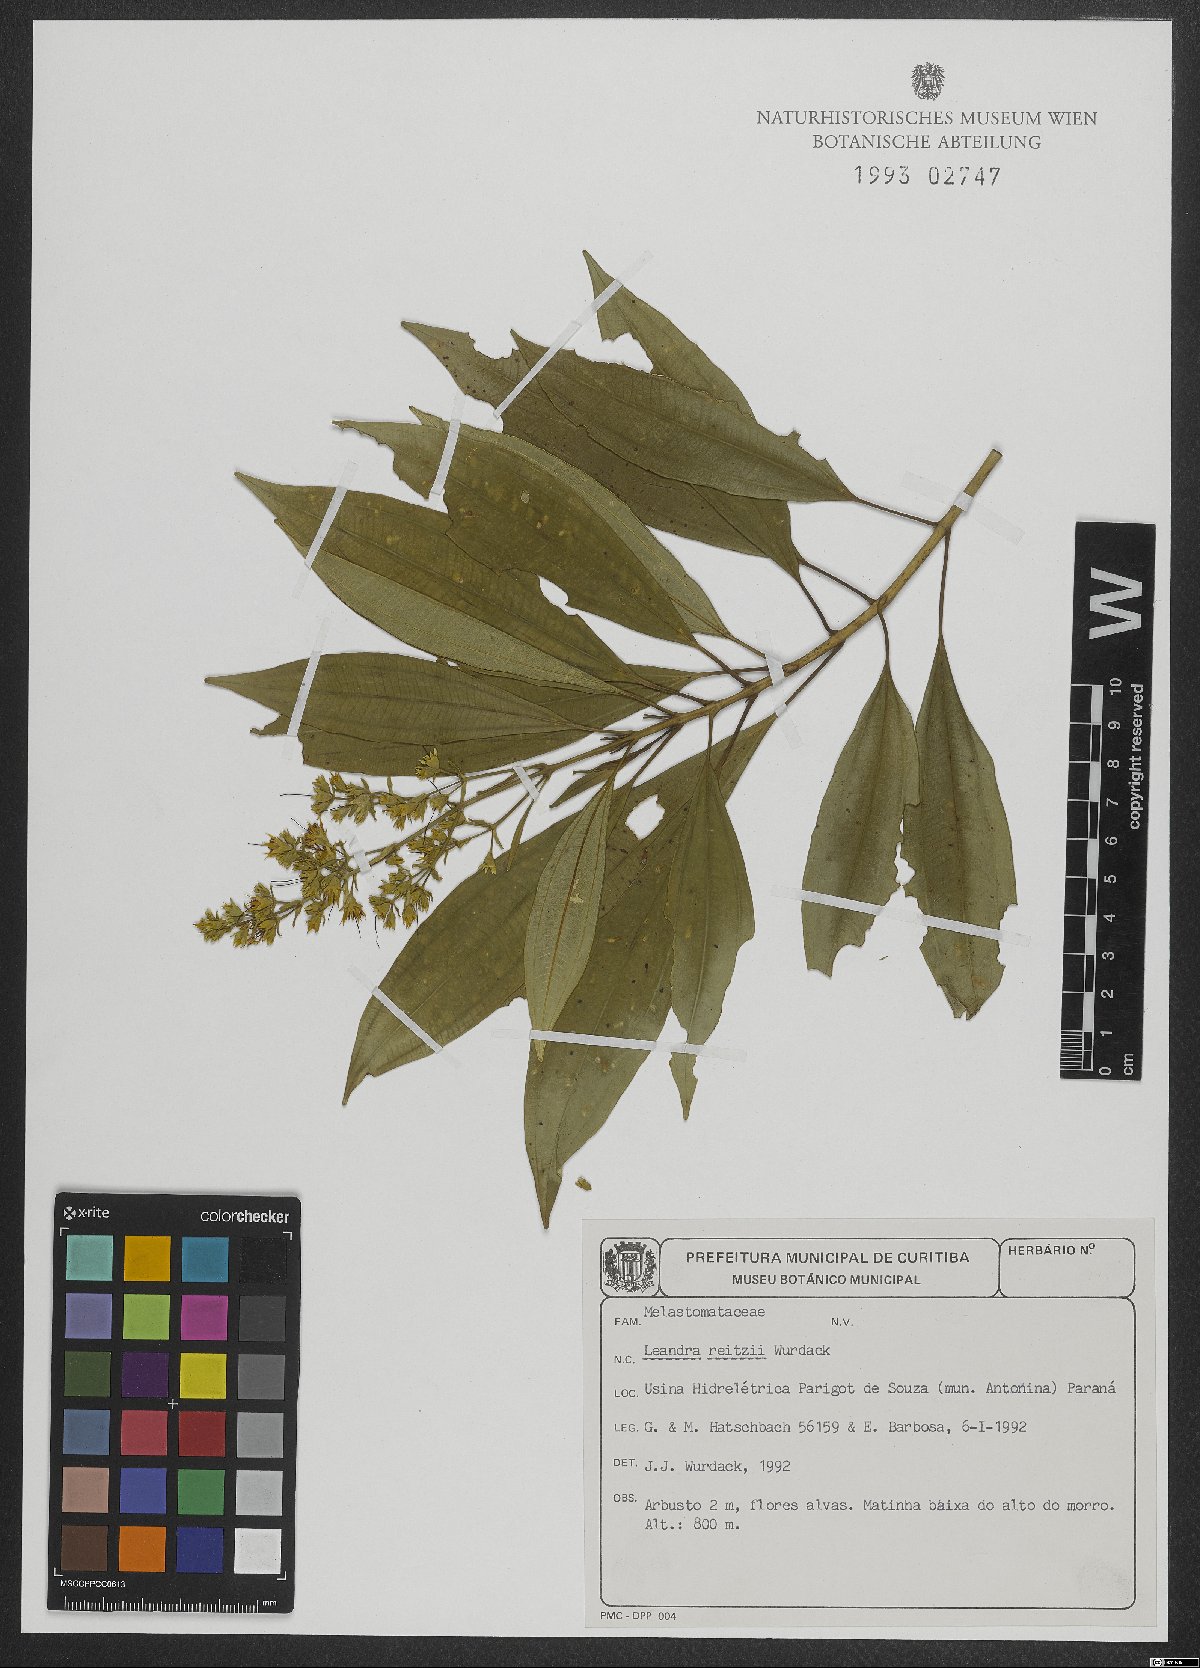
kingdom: Plantae
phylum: Tracheophyta
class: Magnoliopsida
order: Myrtales
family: Melastomataceae
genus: Miconia
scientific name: Miconia reitzii
